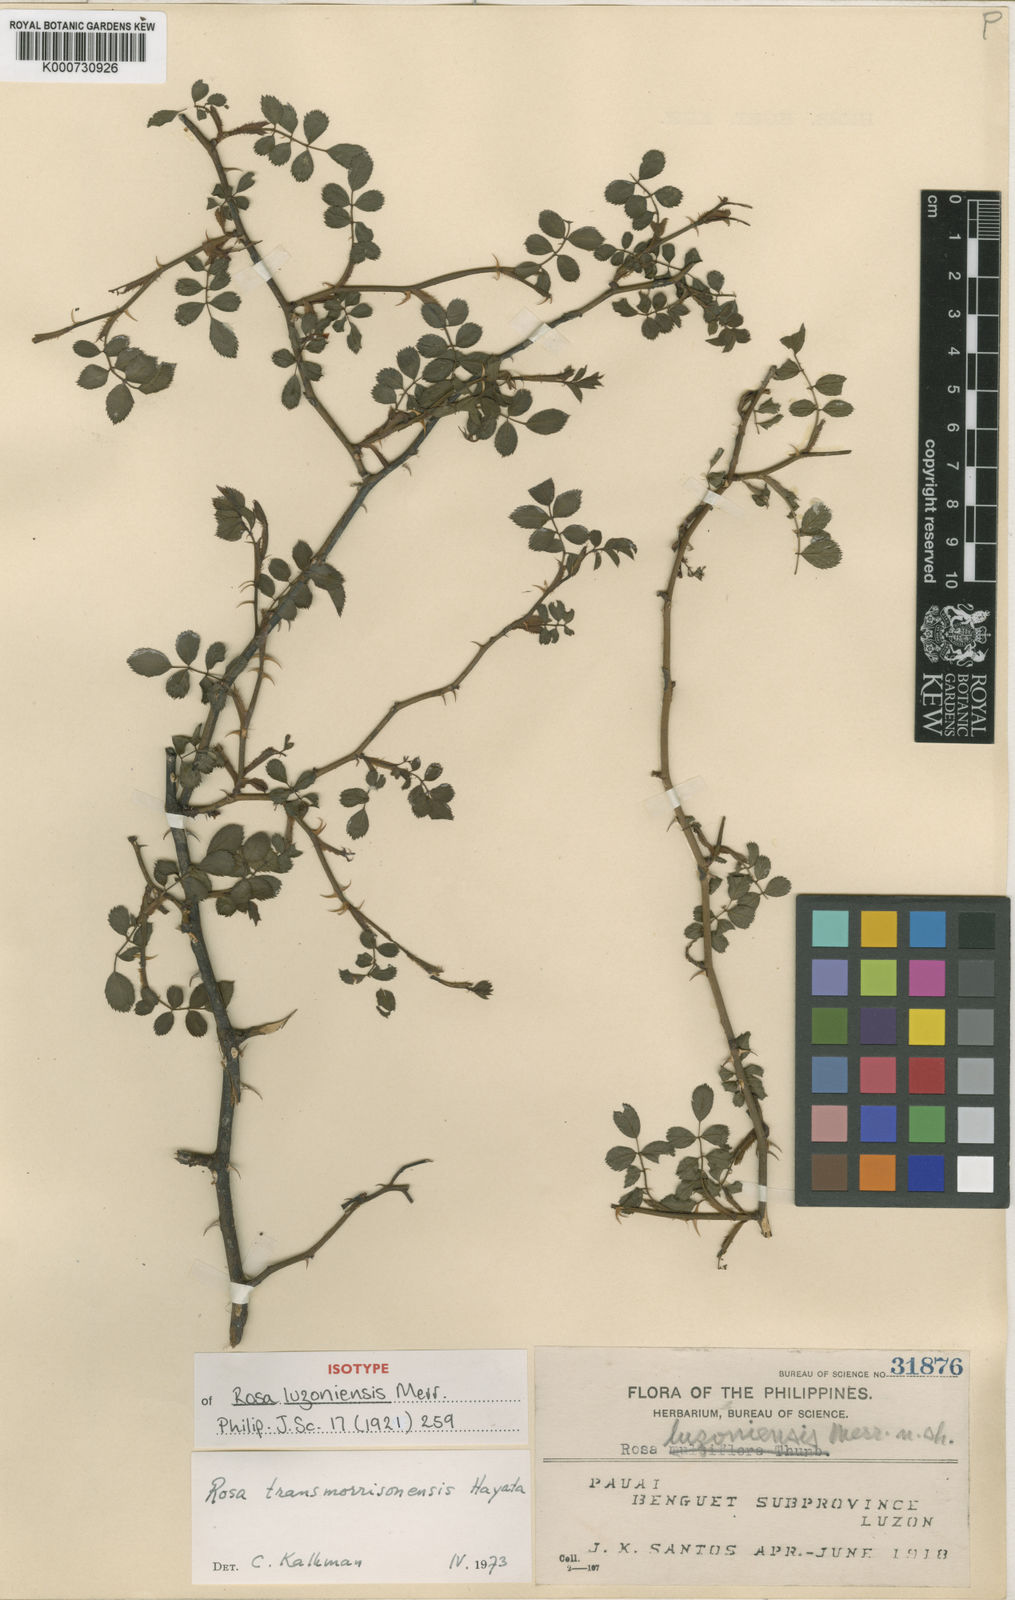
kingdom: Plantae
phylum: Tracheophyta
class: Magnoliopsida
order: Rosales
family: Rosaceae
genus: Rosa
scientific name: Rosa transmorrisonensis
